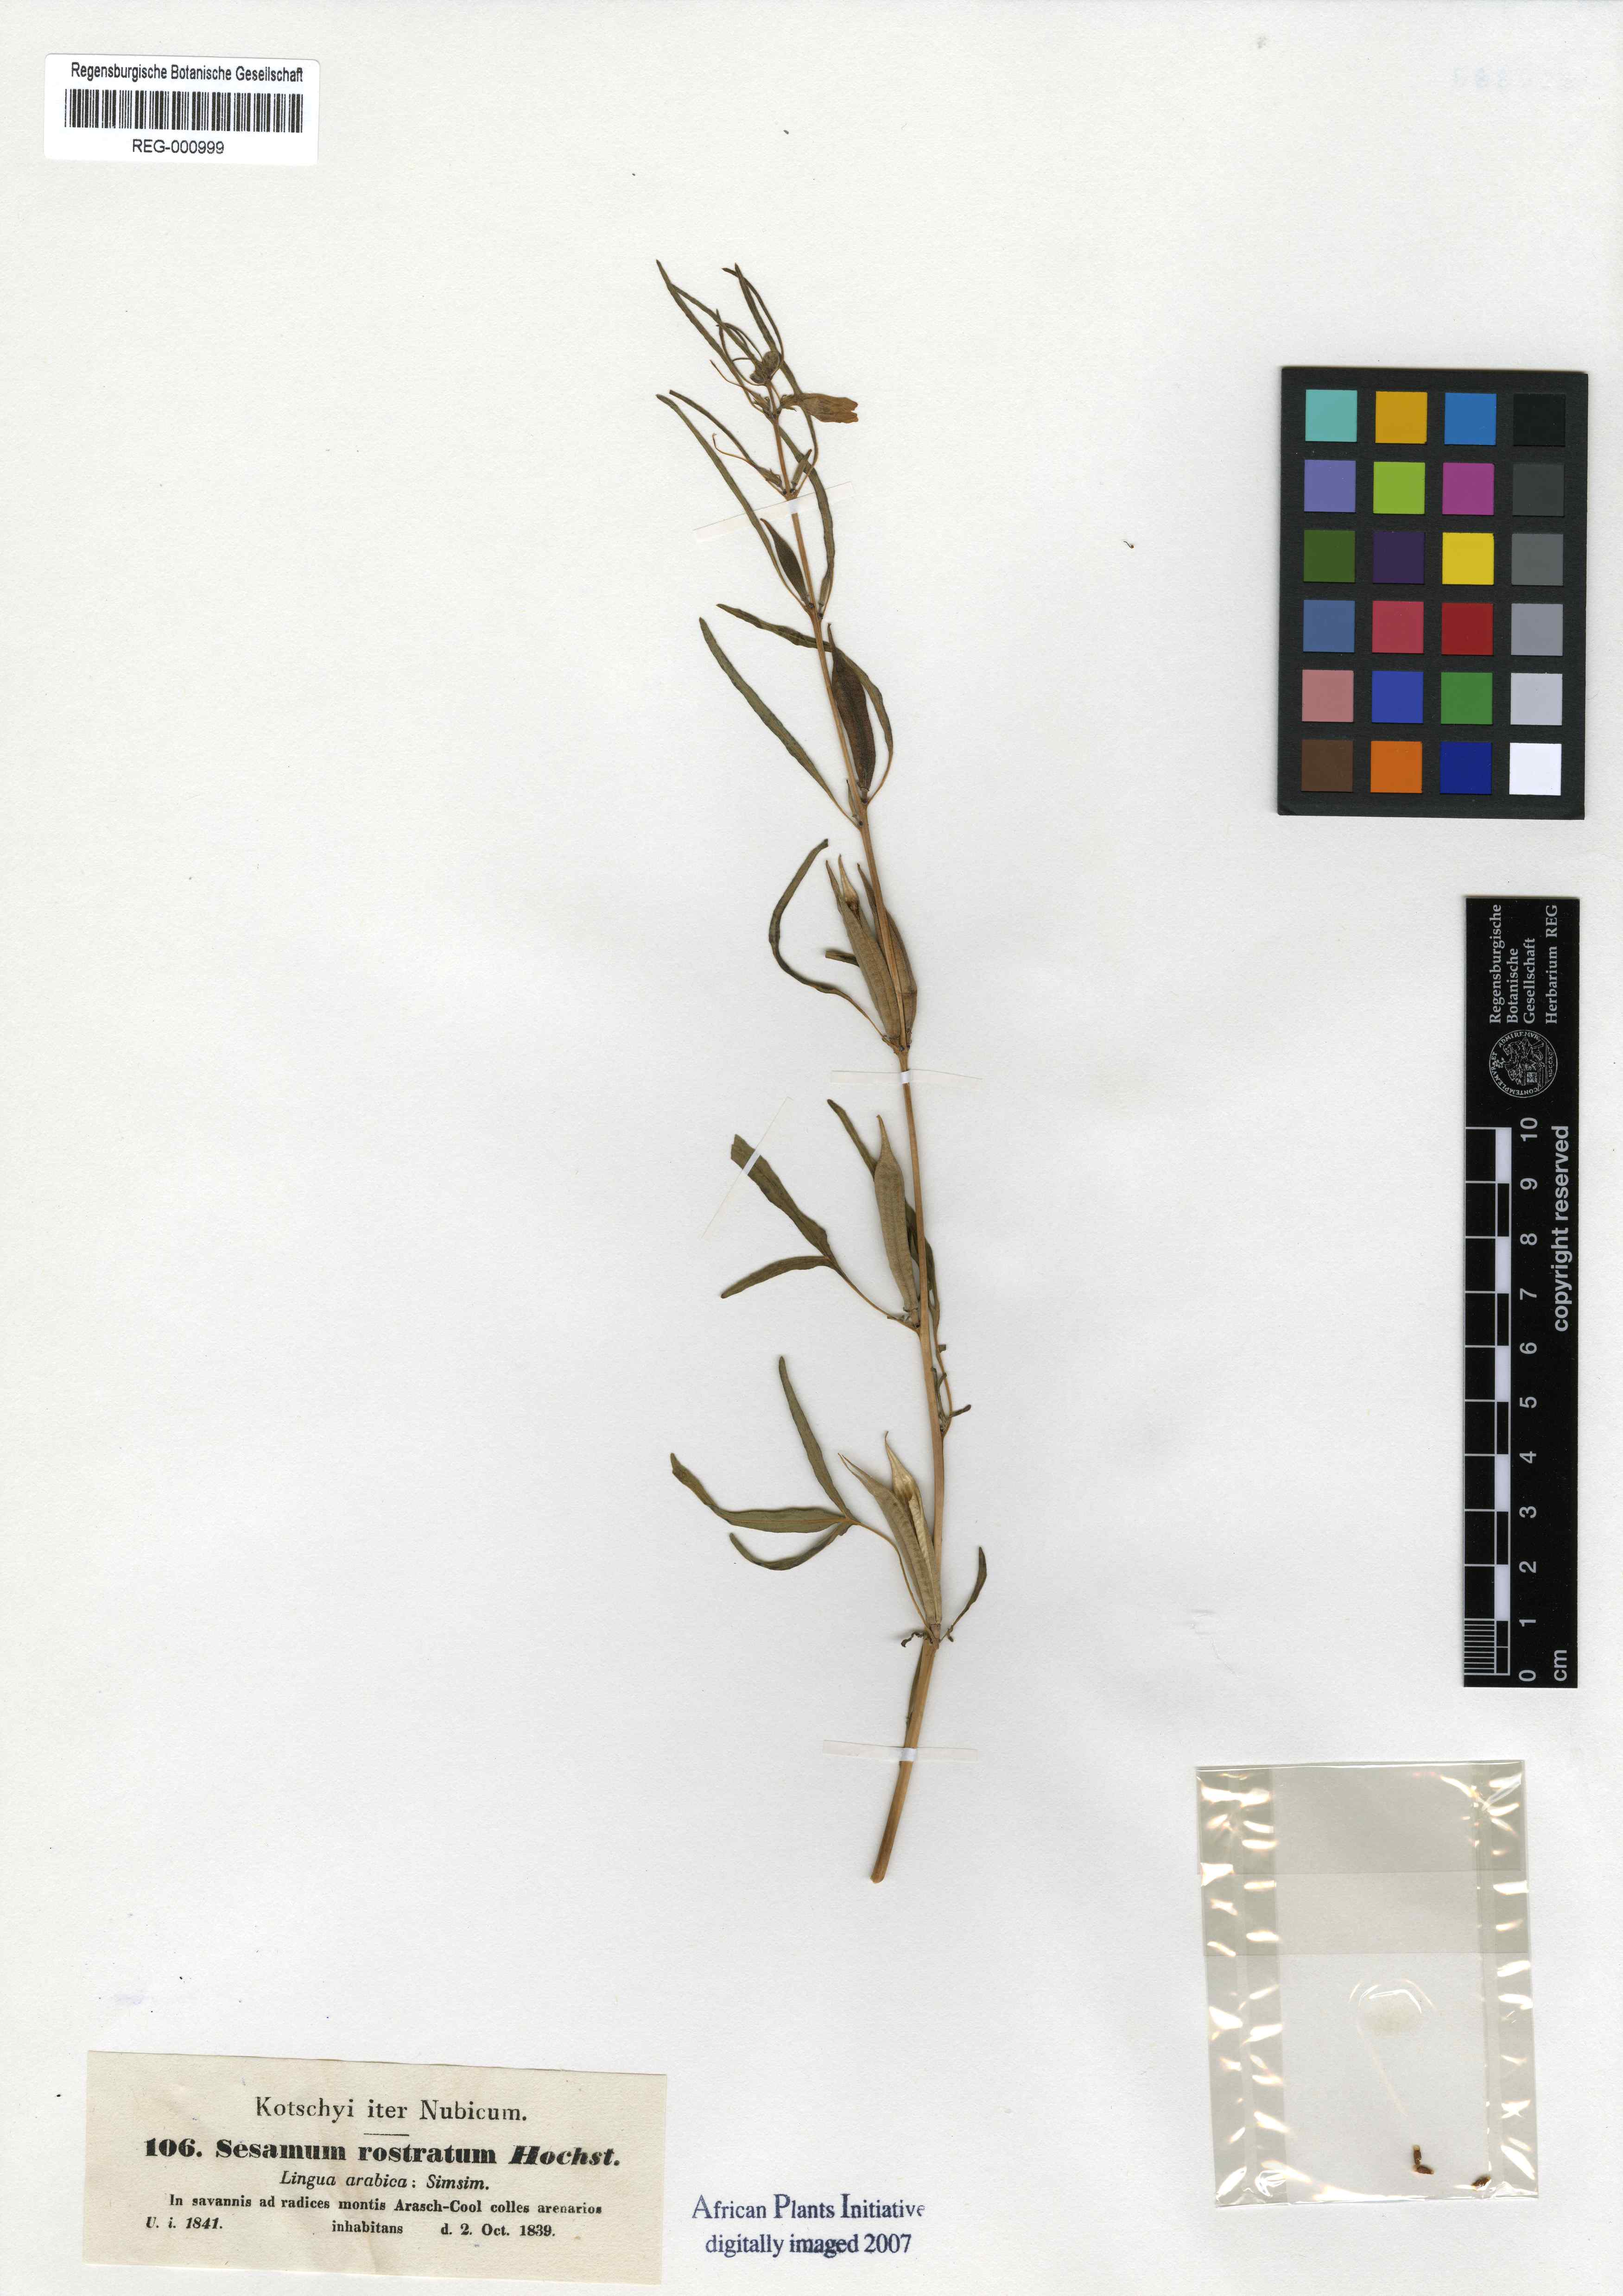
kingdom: Plantae
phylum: Tracheophyta
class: Magnoliopsida
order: Lamiales
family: Pedaliaceae
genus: Sesamum
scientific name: Sesamum alatum
